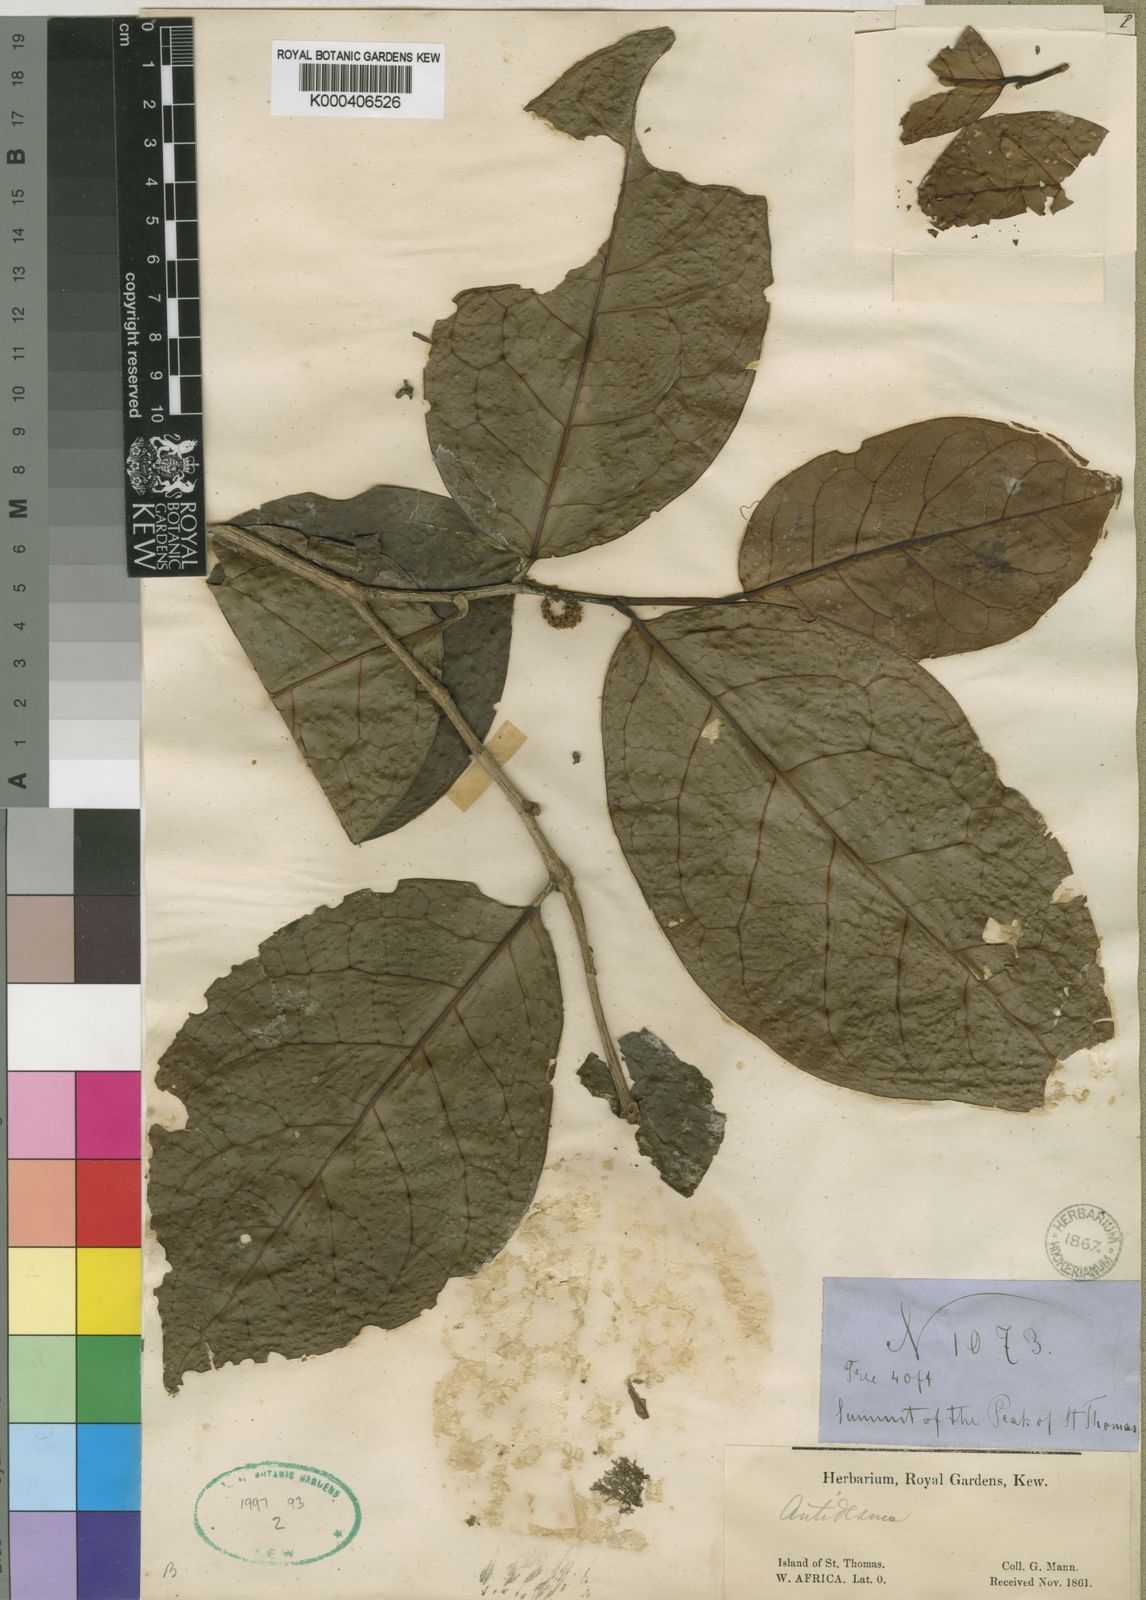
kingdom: Plantae
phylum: Tracheophyta
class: Magnoliopsida
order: Malpighiales
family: Phyllanthaceae
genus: Thecacoris
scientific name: Thecacoris
